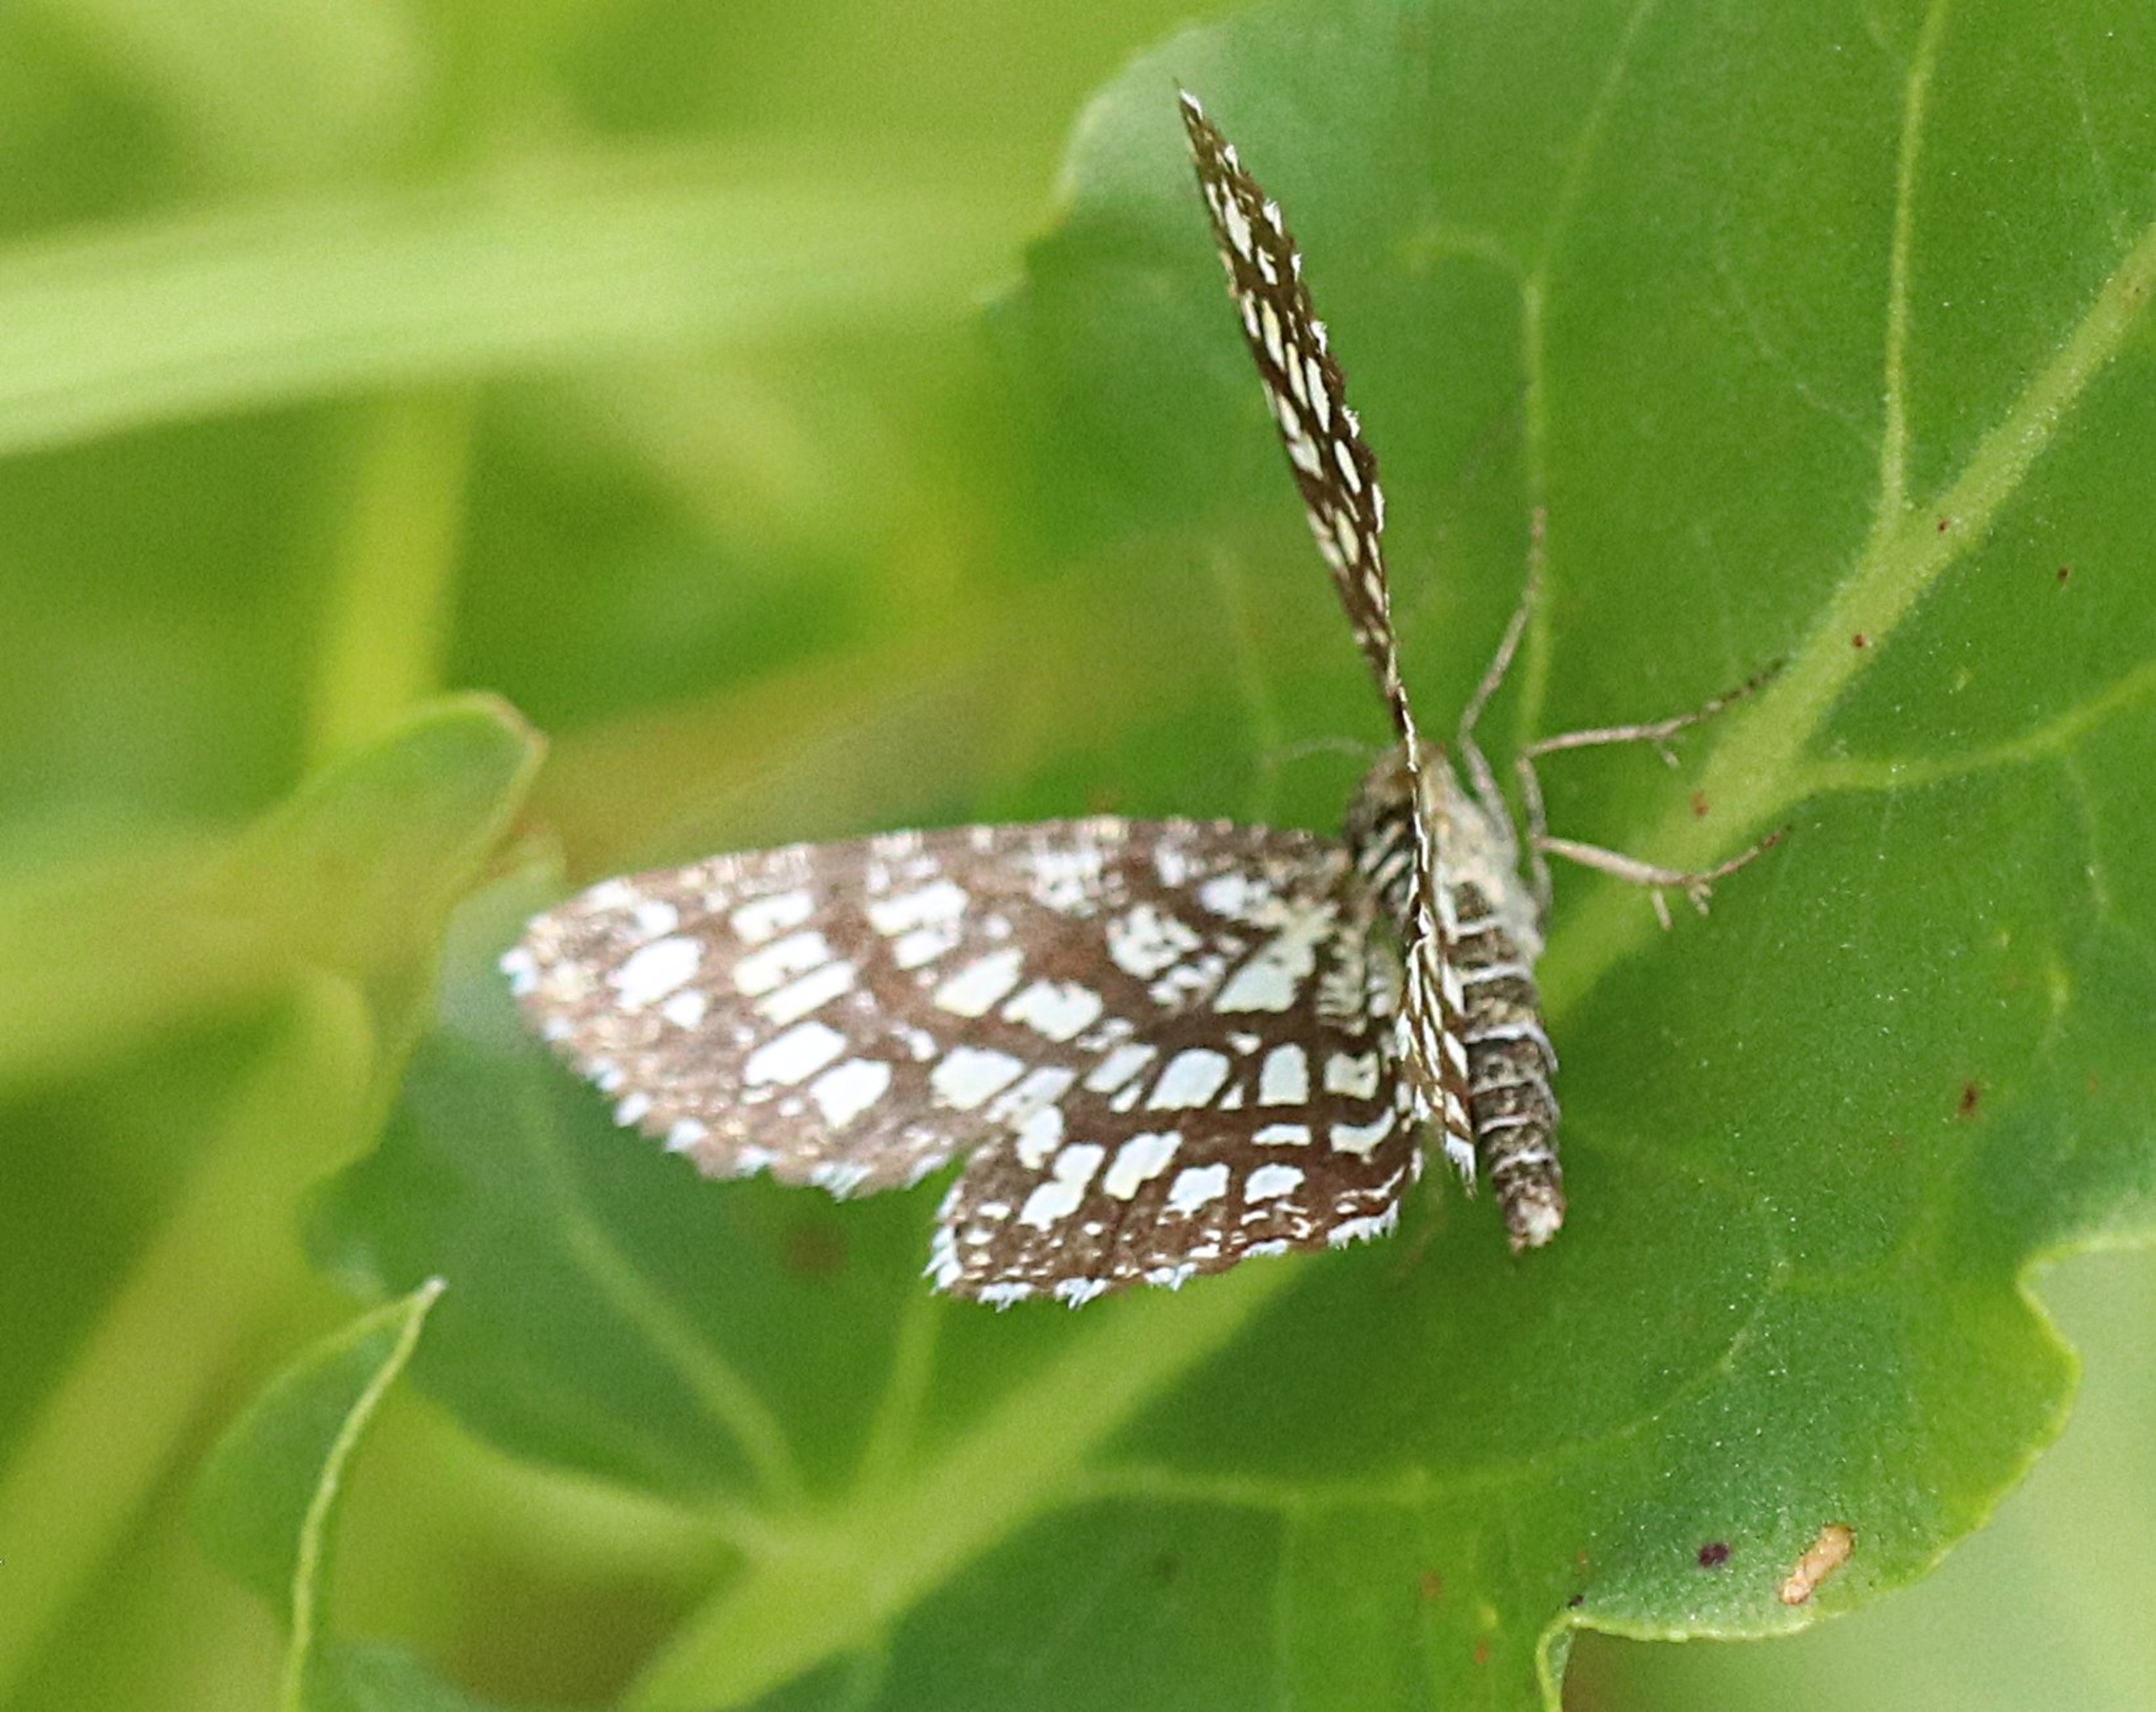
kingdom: Animalia
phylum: Arthropoda
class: Insecta
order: Lepidoptera
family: Geometridae
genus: Chiasmia
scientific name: Chiasmia clathrata
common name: Kløvermåler
